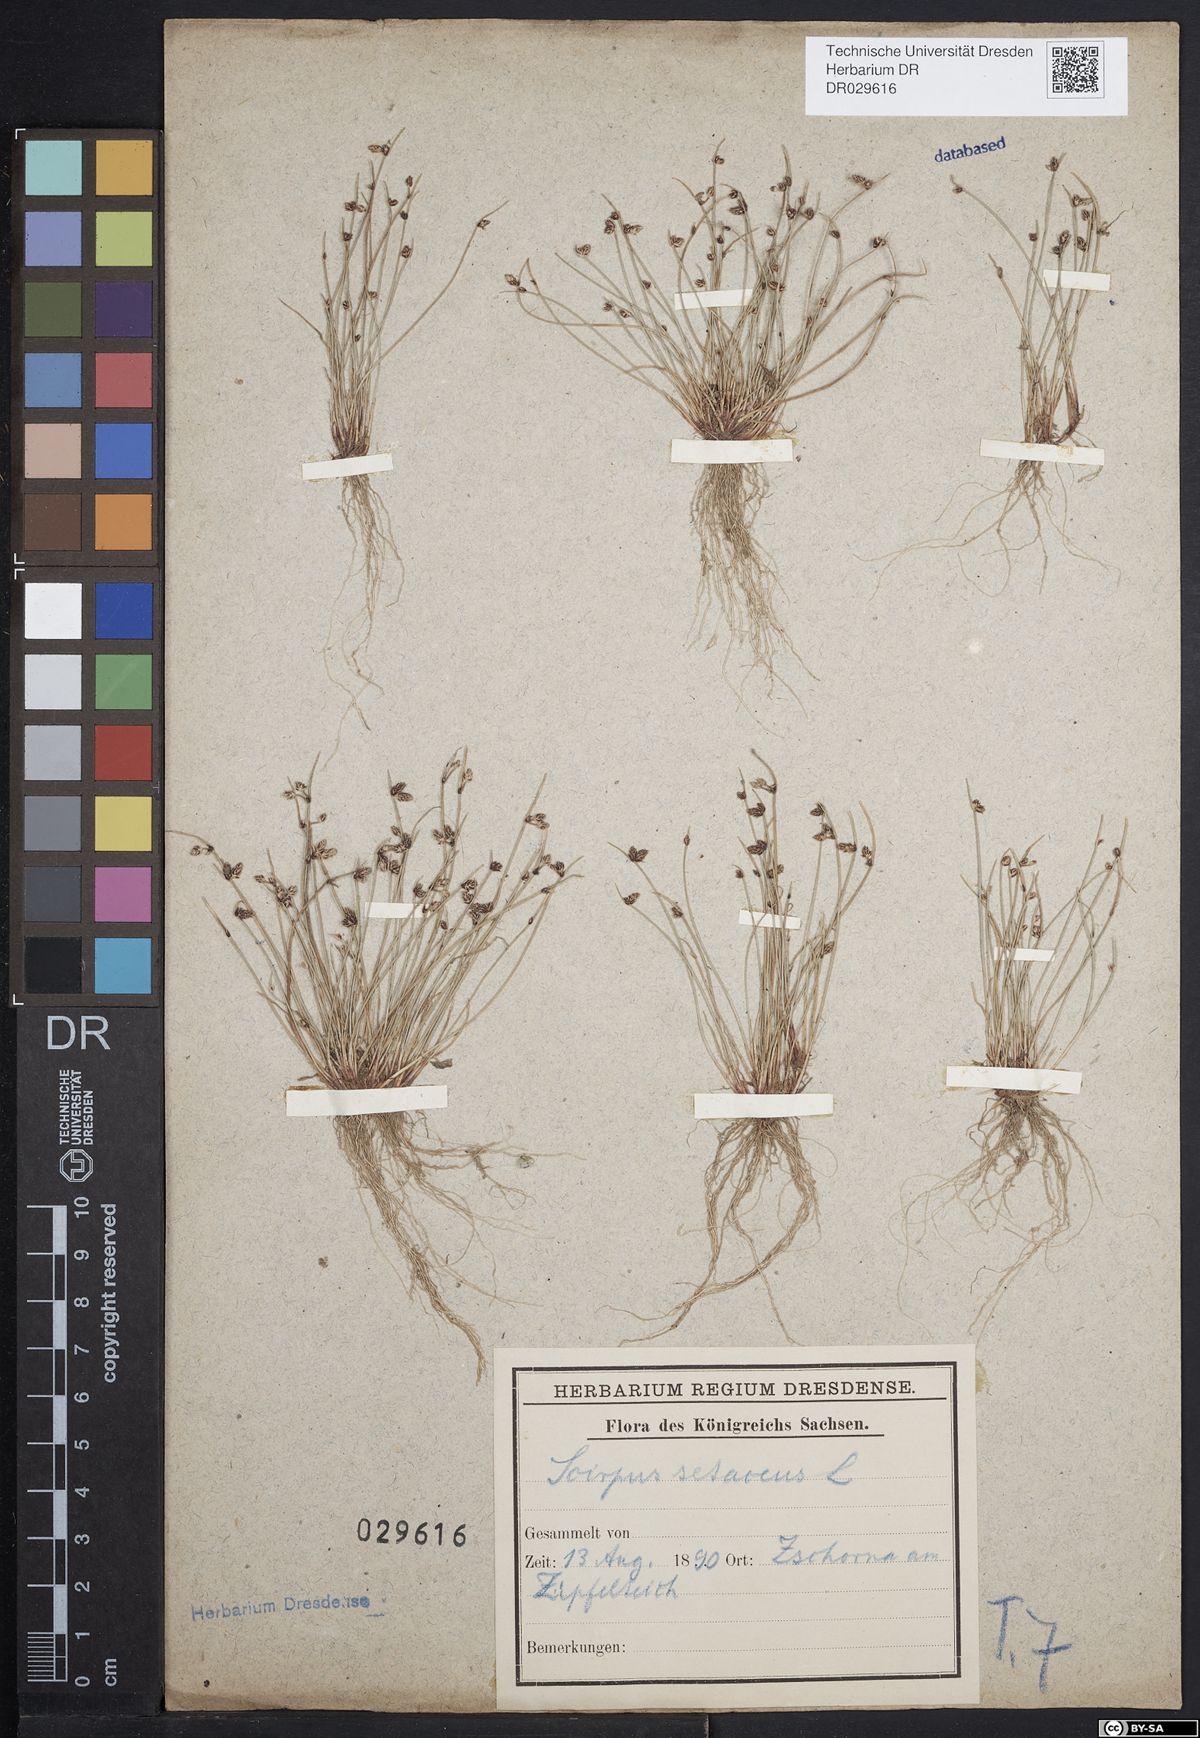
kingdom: Plantae
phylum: Tracheophyta
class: Liliopsida
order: Poales
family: Cyperaceae
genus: Isolepis
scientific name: Isolepis setacea
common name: Bristle club-rush
